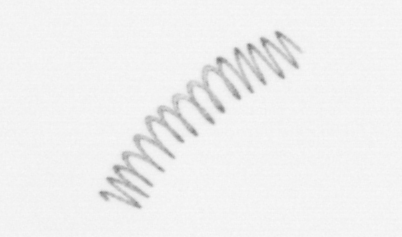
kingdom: Chromista
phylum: Ochrophyta
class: Bacillariophyceae
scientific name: Bacillariophyceae
